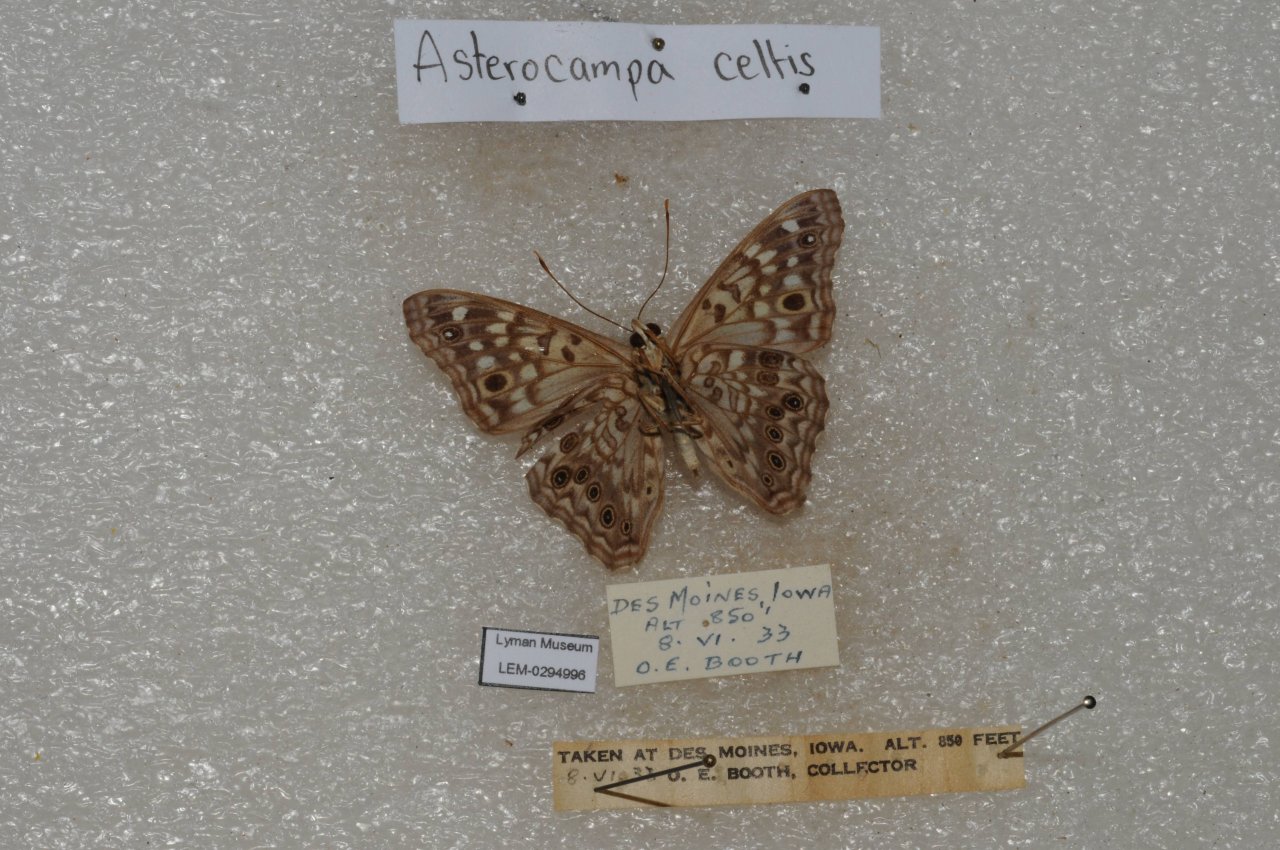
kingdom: Animalia
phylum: Arthropoda
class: Insecta
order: Lepidoptera
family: Nymphalidae
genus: Asterocampa
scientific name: Asterocampa celtis
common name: Hackberry Emperor
